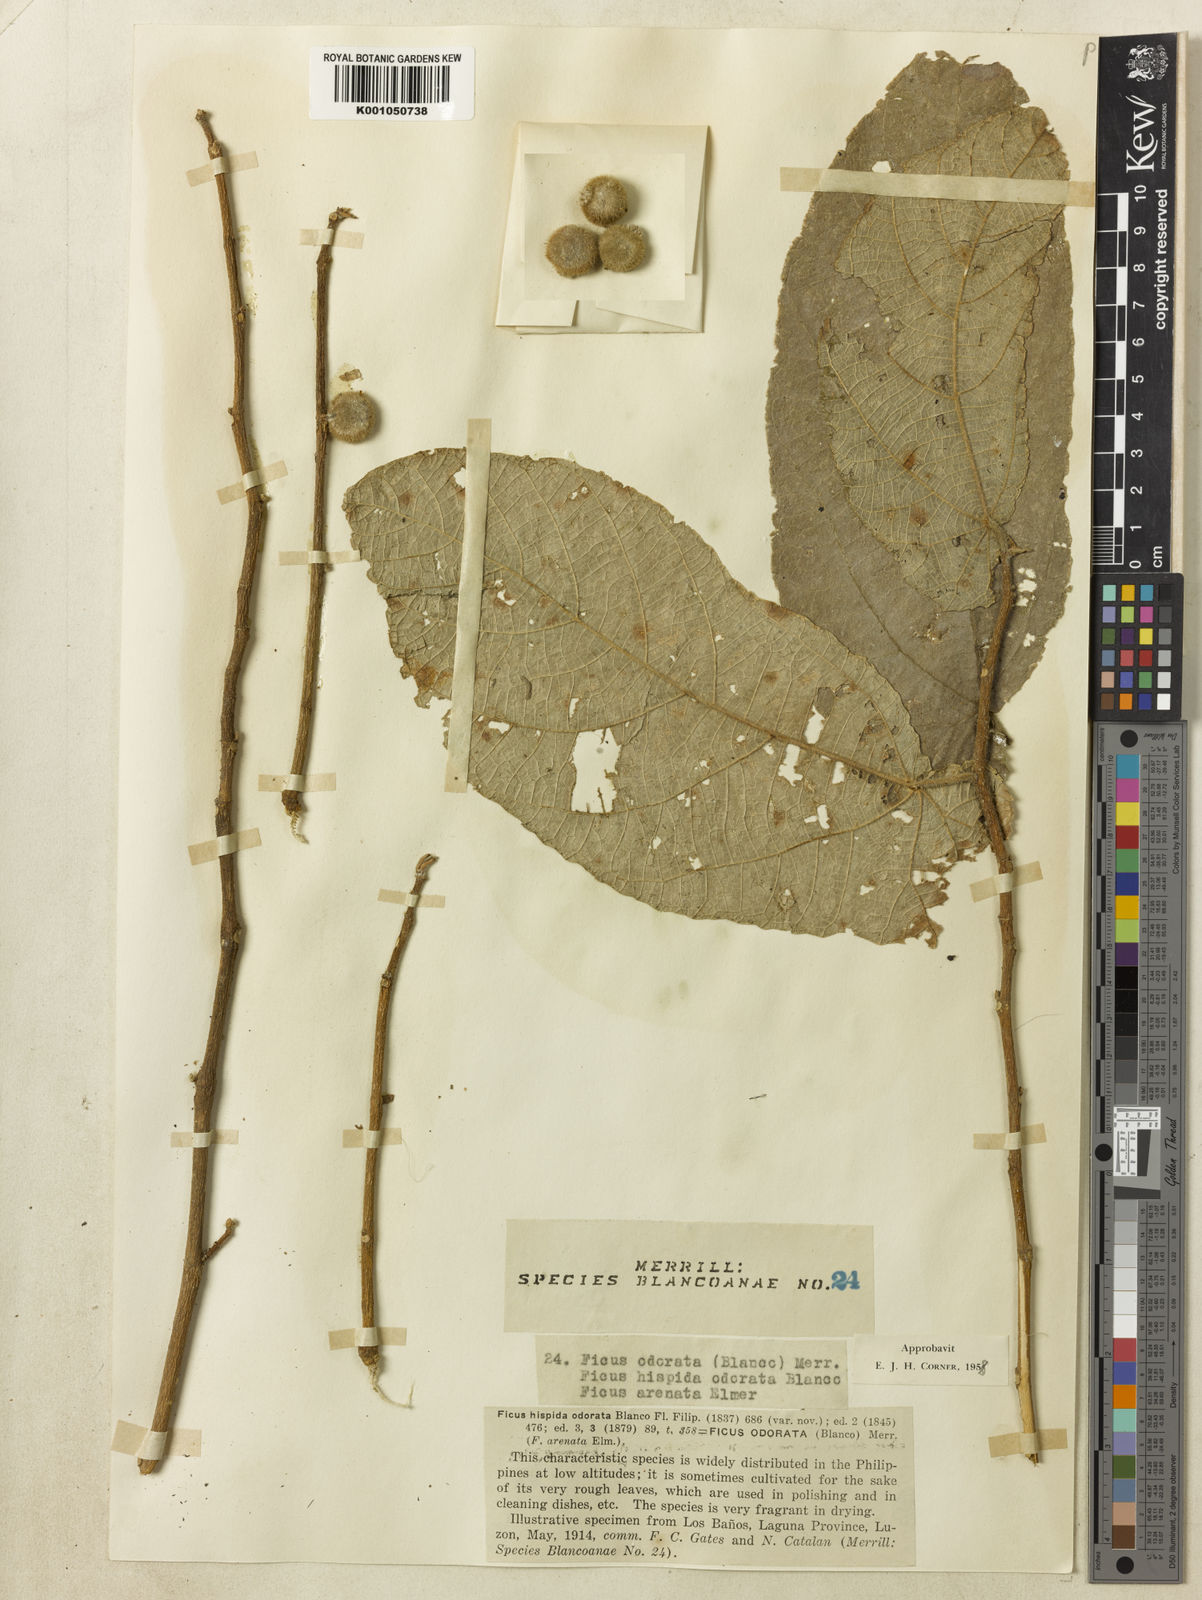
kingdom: Plantae
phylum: Tracheophyta
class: Magnoliopsida
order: Rosales
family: Moraceae
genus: Ficus
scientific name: Ficus odorata
